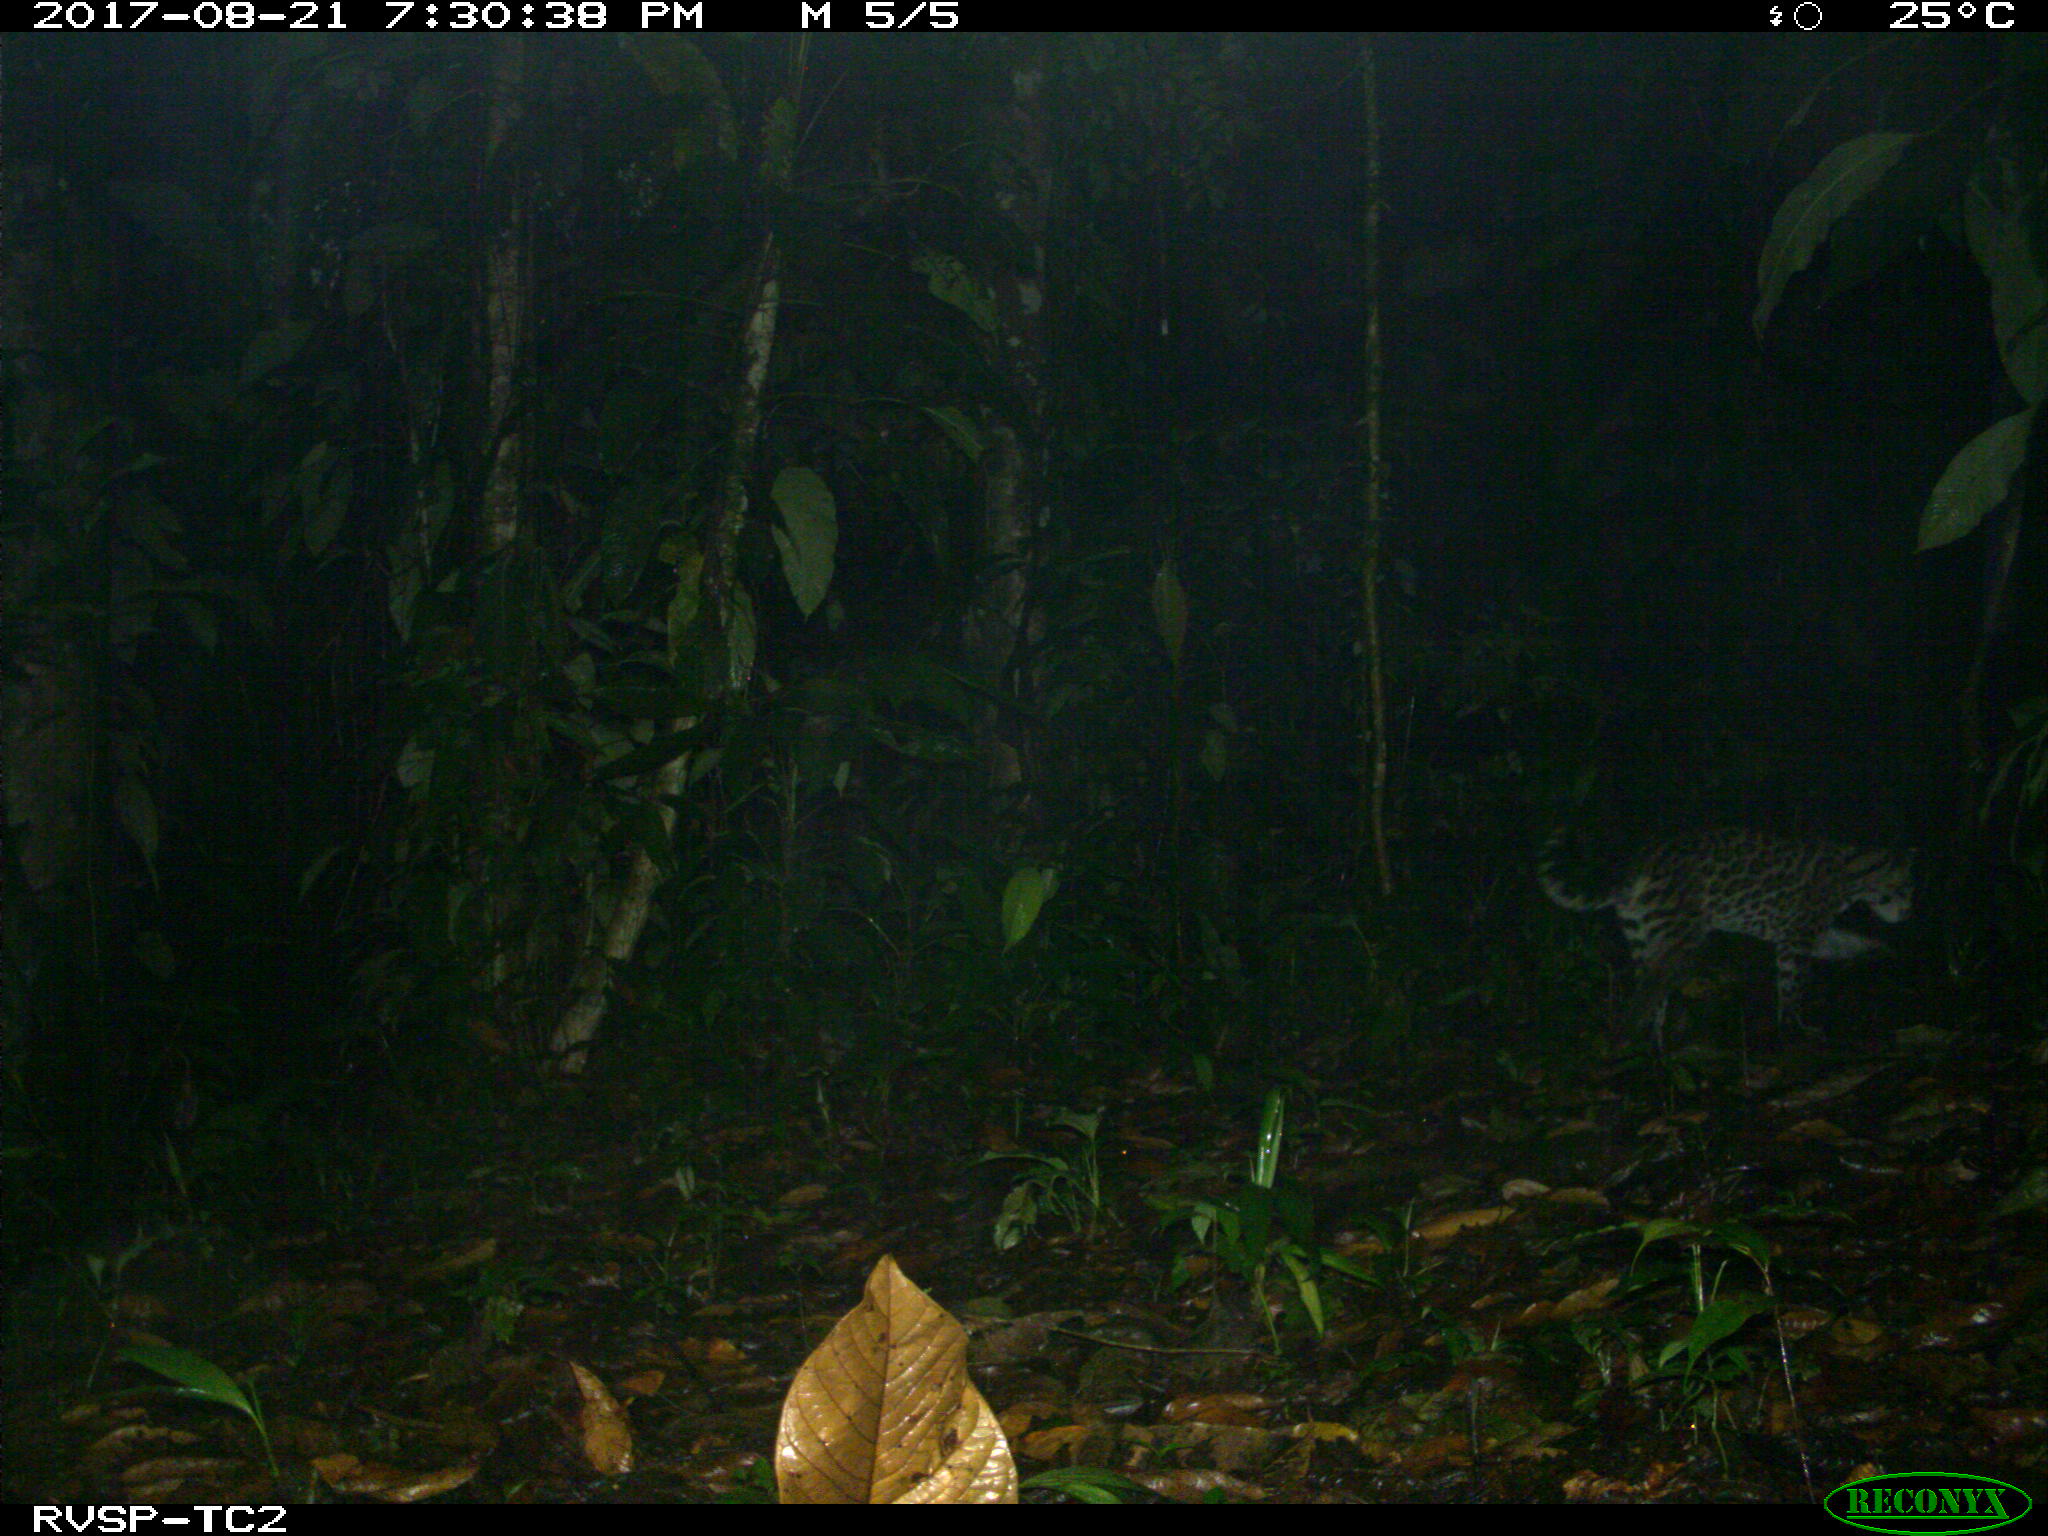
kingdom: Animalia
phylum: Chordata
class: Mammalia
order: Carnivora
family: Felidae
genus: Leopardus
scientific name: Leopardus pardalis
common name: Ocelot
